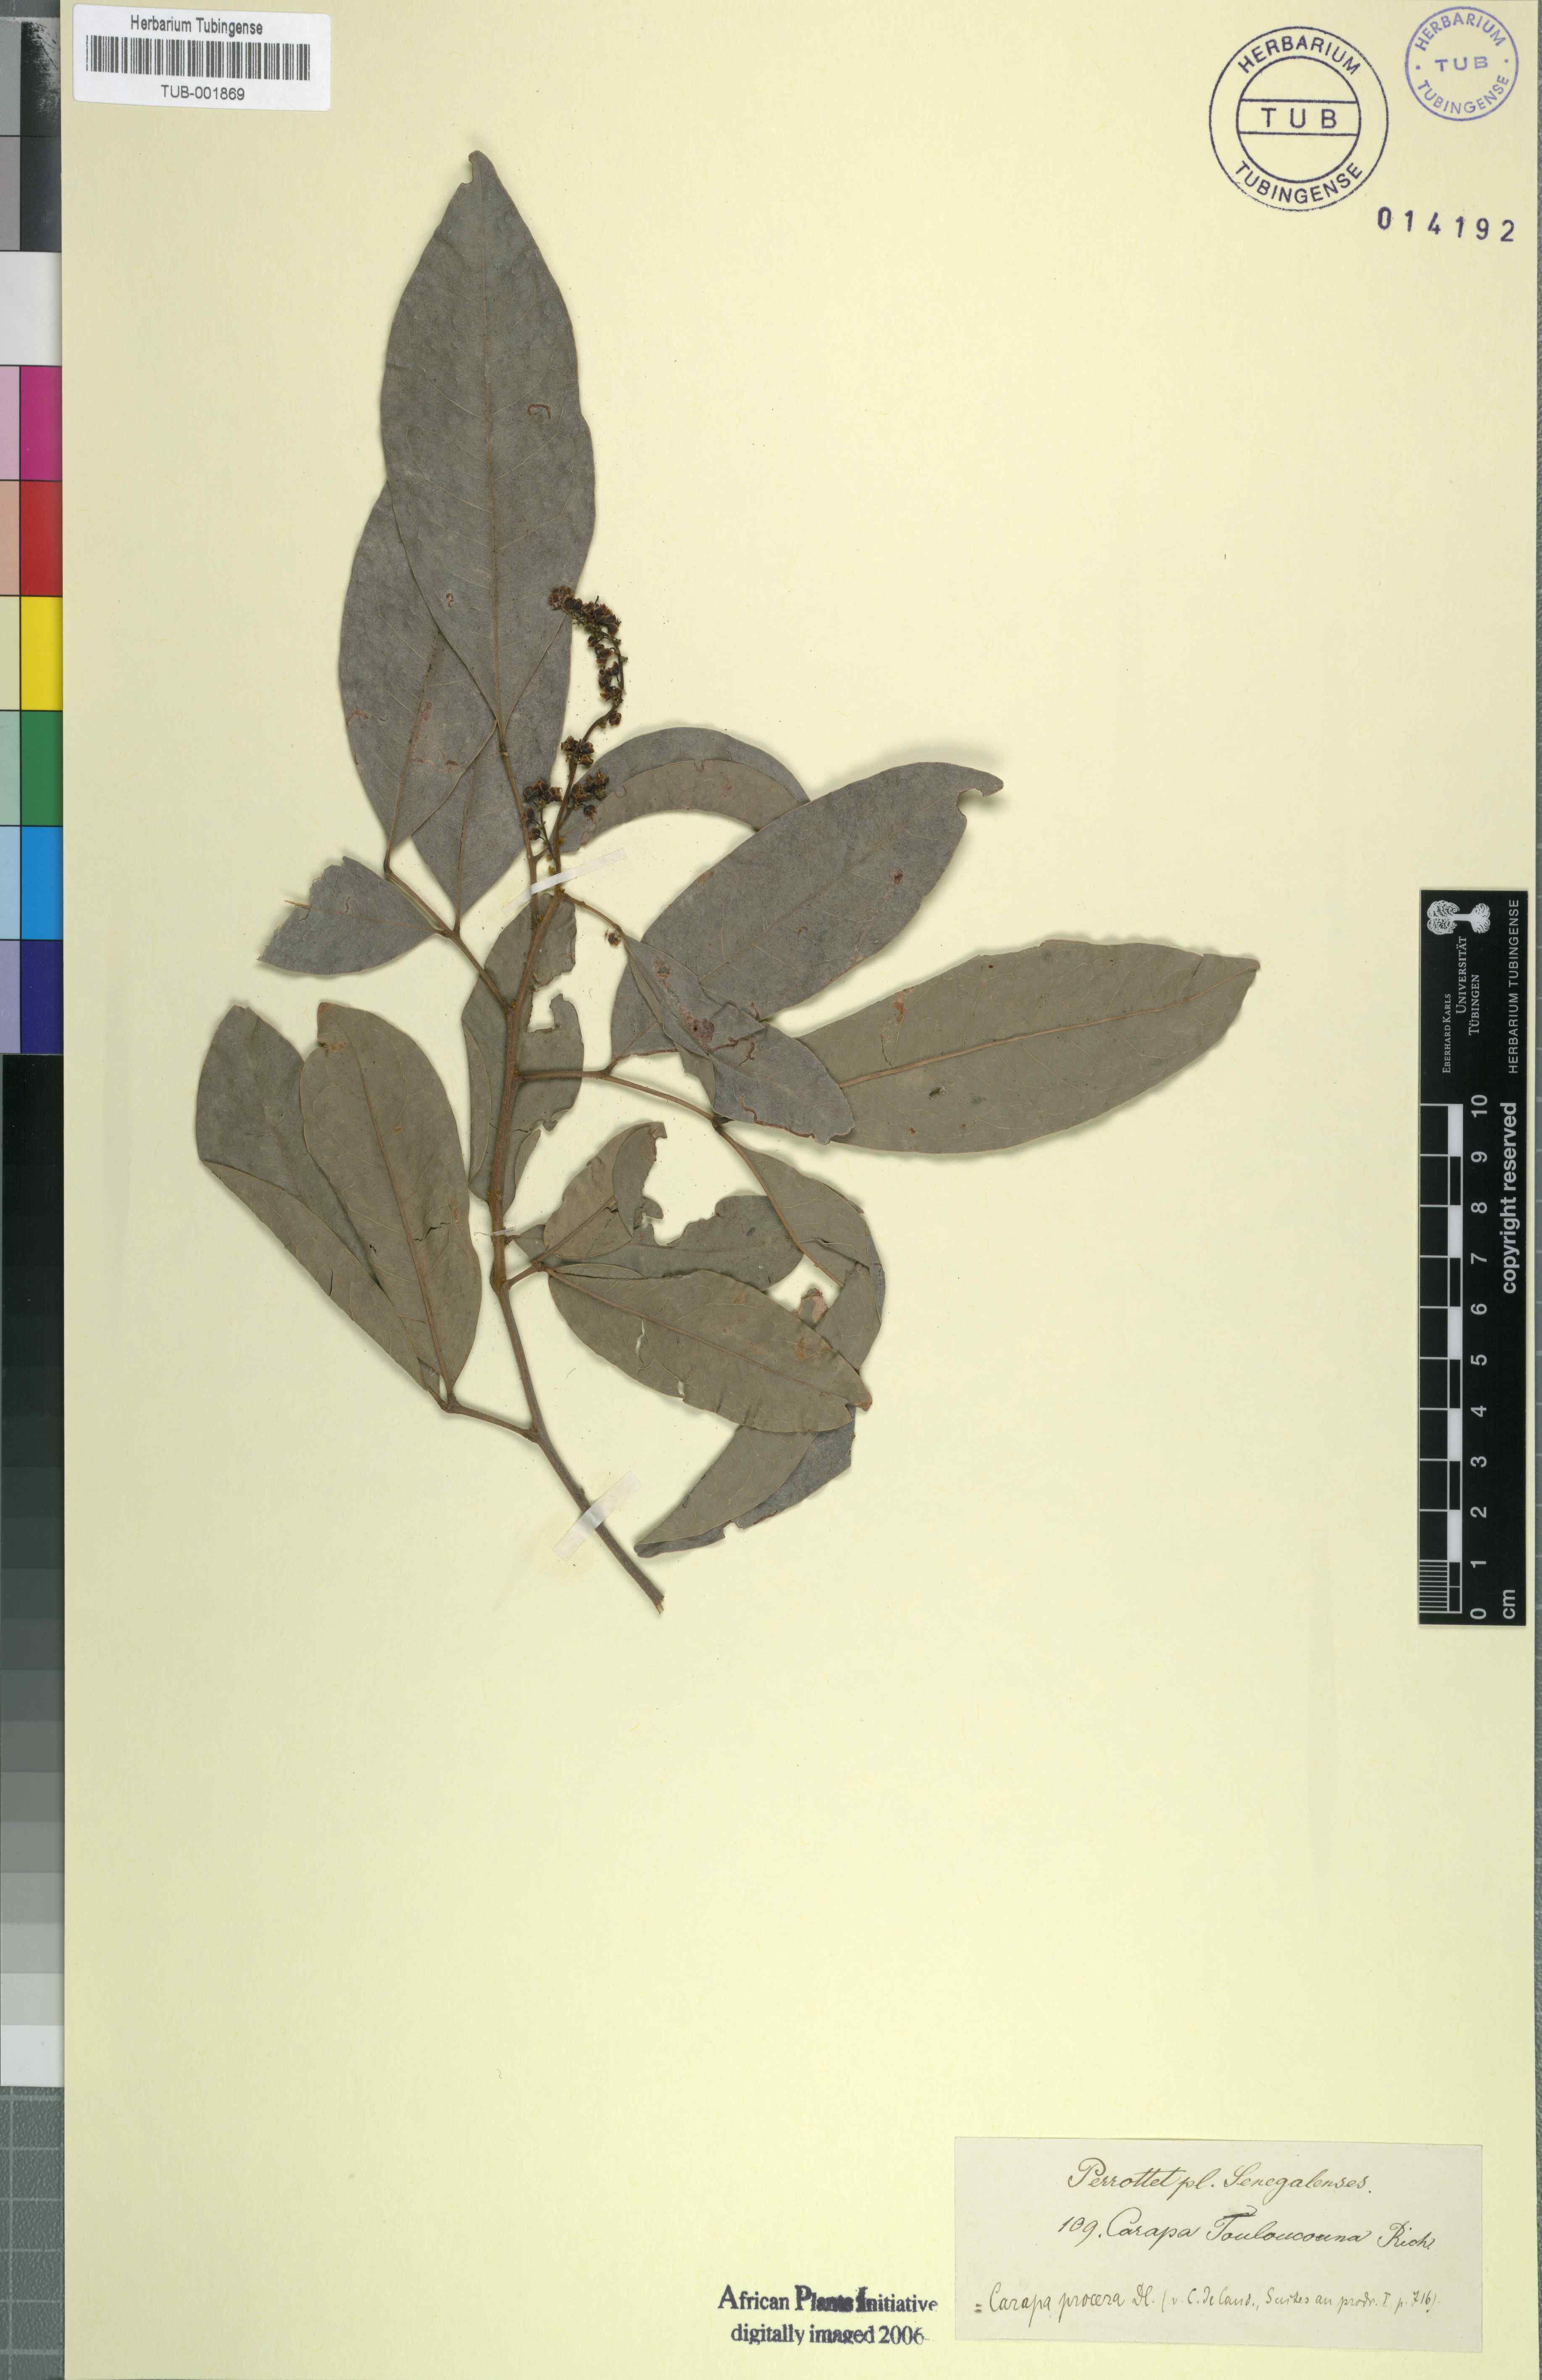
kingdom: Plantae
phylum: Tracheophyta
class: Magnoliopsida
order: Sapindales
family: Meliaceae
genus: Carapa
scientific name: Carapa procera
